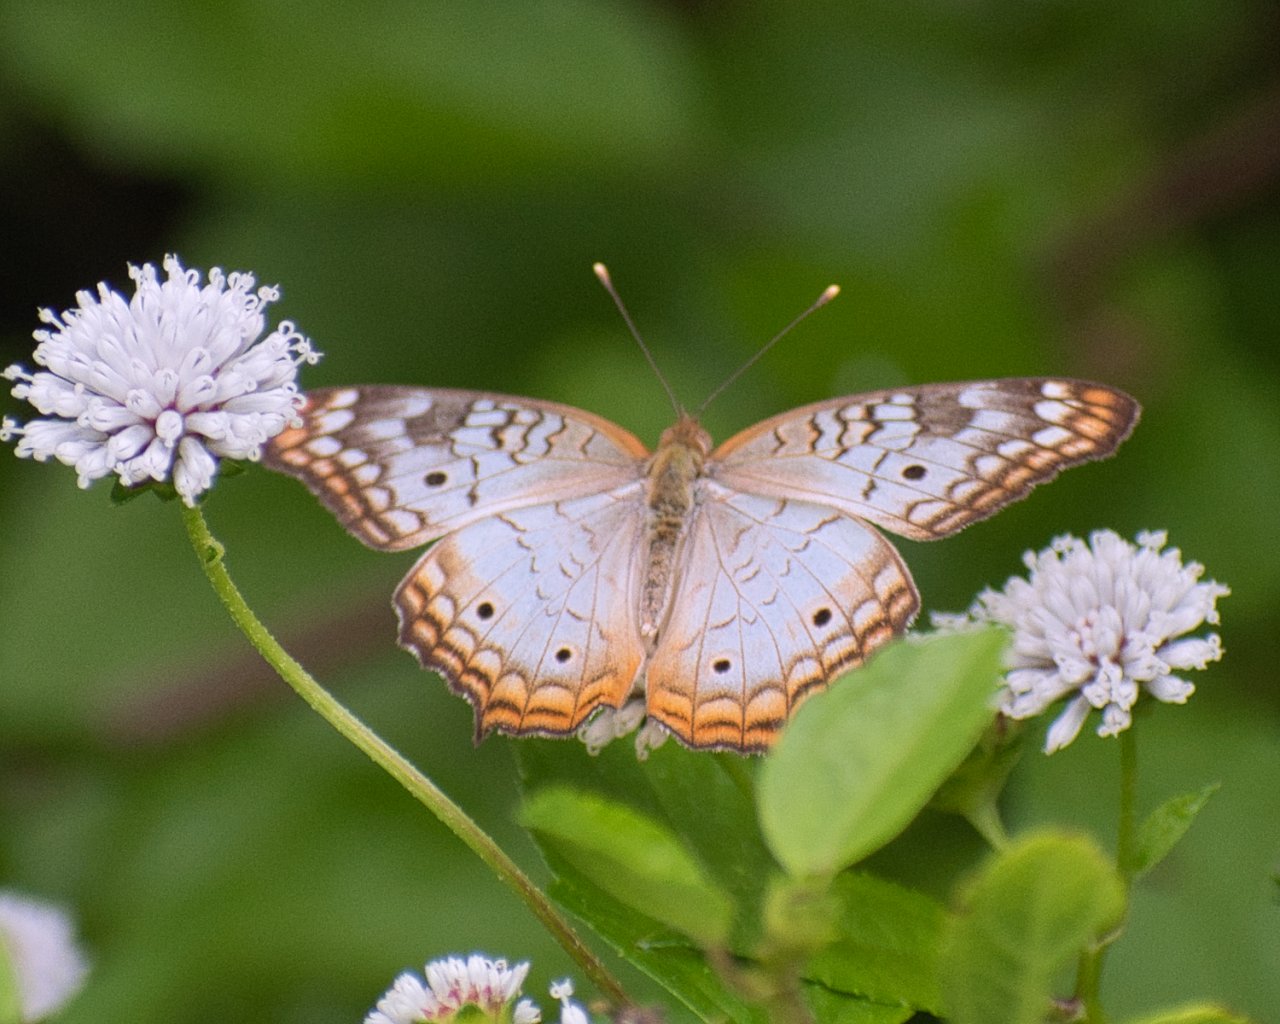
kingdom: Animalia
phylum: Arthropoda
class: Insecta
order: Lepidoptera
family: Nymphalidae
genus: Anartia
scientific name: Anartia jatrophae
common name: White Peacock
